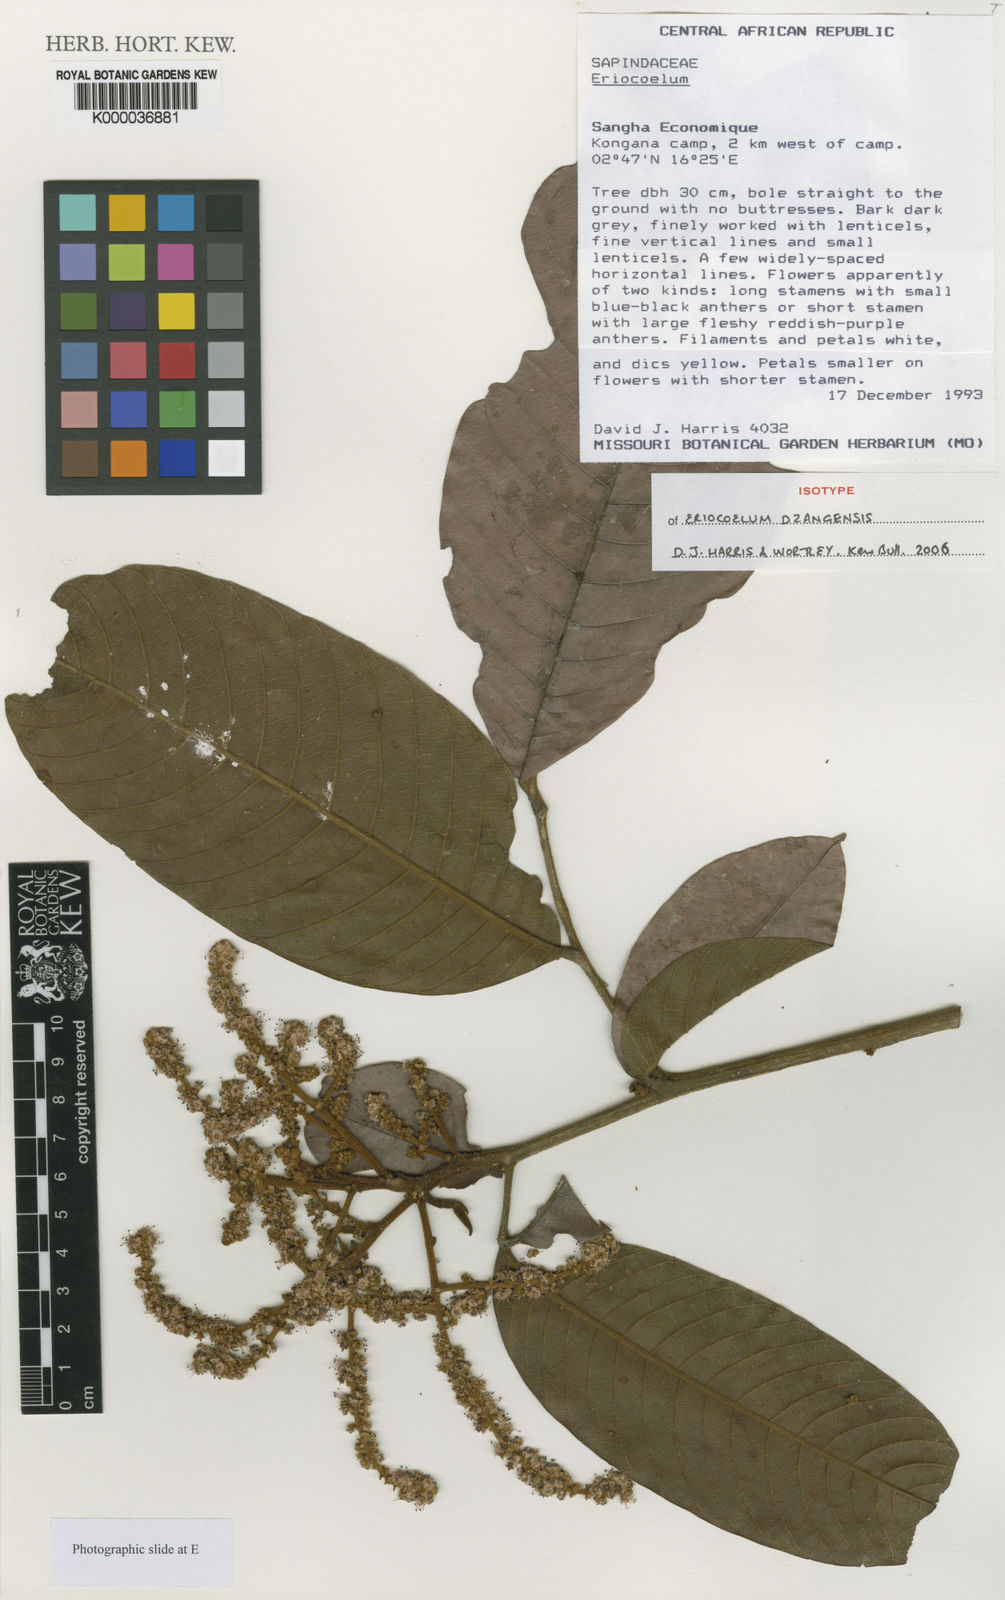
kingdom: Plantae
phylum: Tracheophyta
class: Magnoliopsida
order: Sapindales
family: Sapindaceae
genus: Eriocoelum
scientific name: Eriocoelum dzangensis
